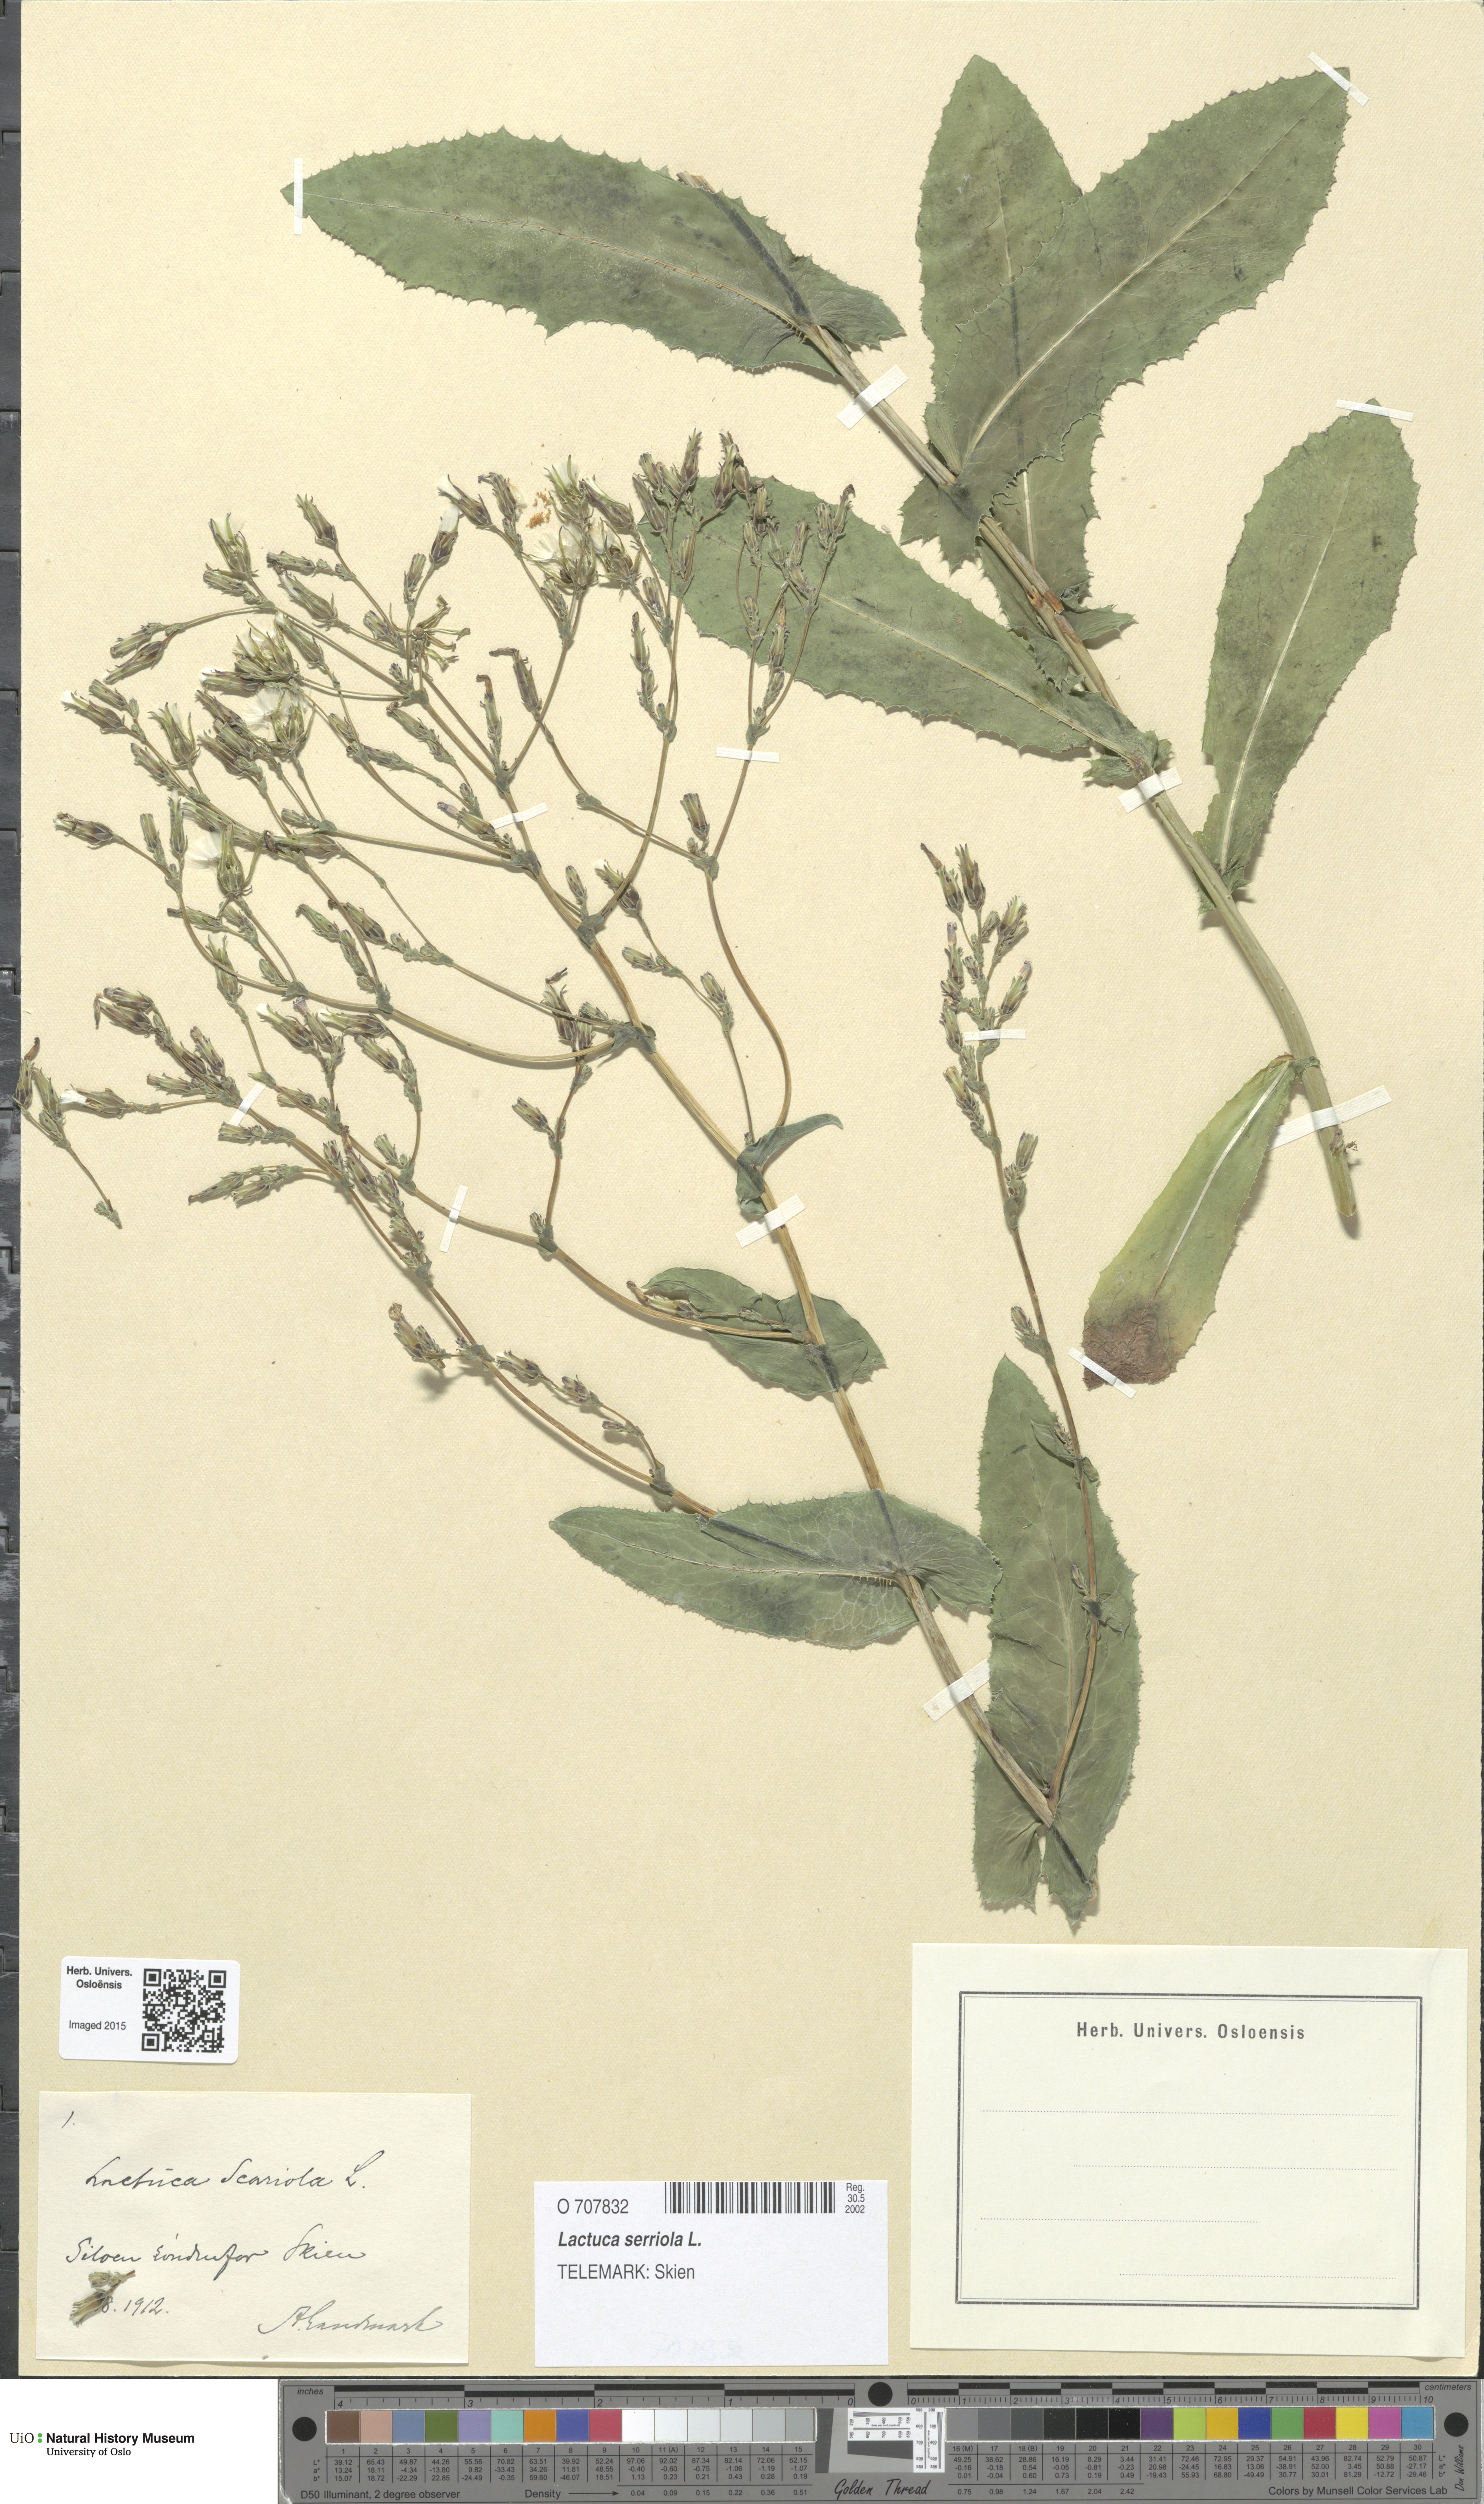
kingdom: Plantae
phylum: Tracheophyta
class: Magnoliopsida
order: Asterales
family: Asteraceae
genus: Lactuca
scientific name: Lactuca serriola
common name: Prickly lettuce
